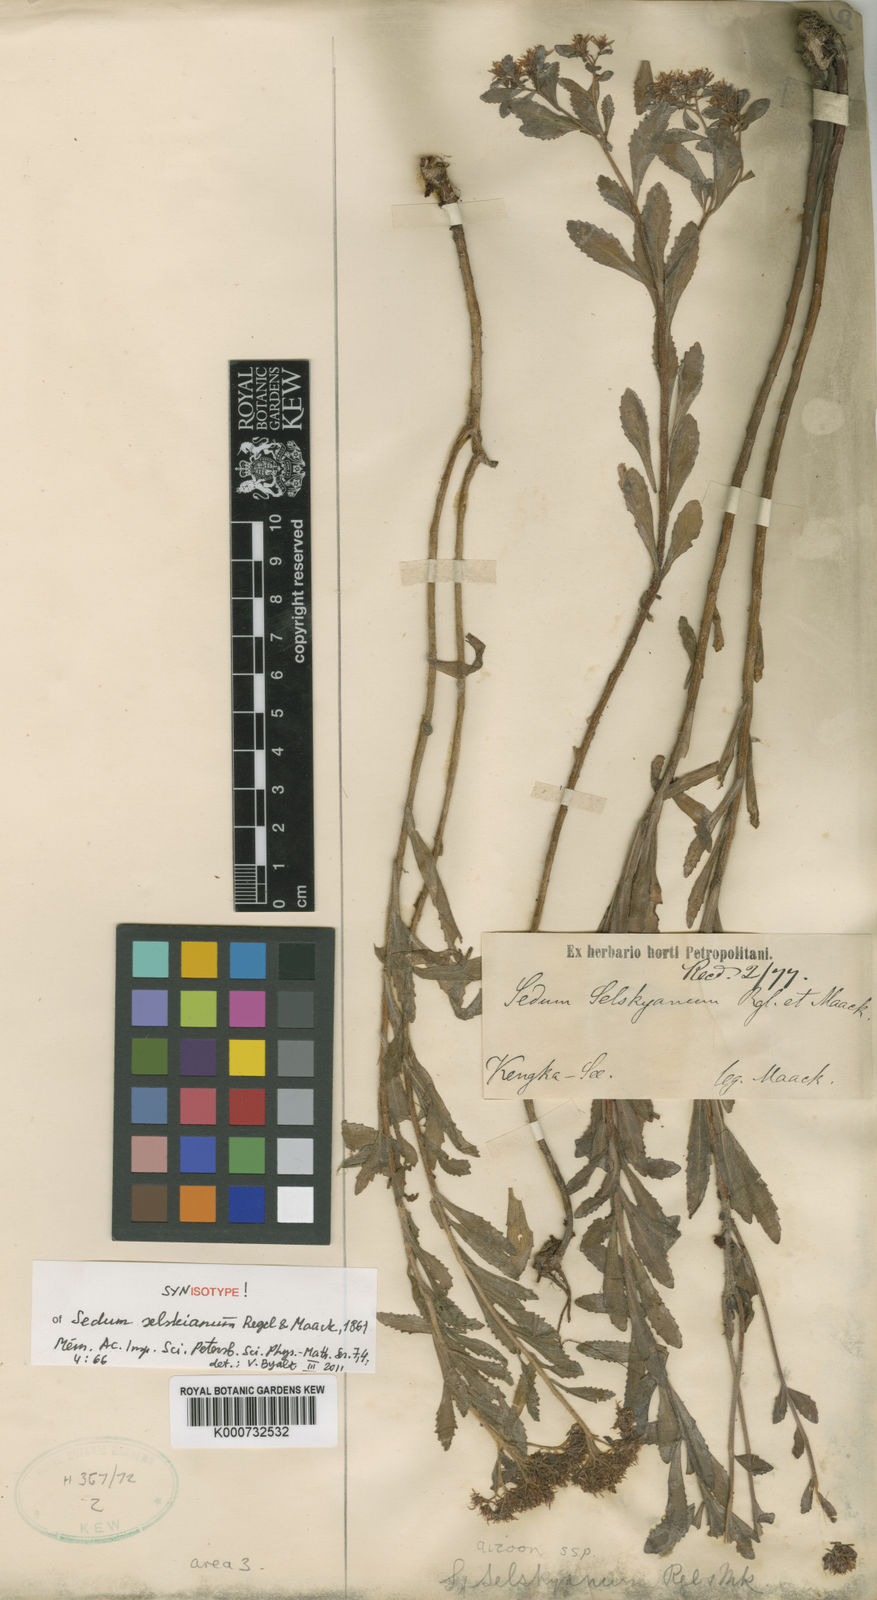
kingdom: Plantae
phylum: Tracheophyta
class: Magnoliopsida
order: Saxifragales
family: Crassulaceae
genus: Phedimus
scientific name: Phedimus selskanianus
